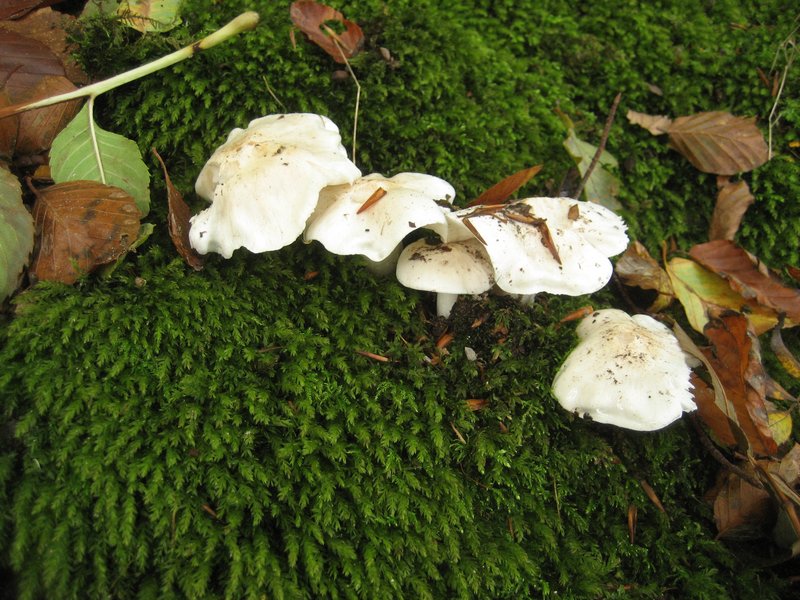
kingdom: Fungi
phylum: Basidiomycota
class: Agaricomycetes
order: Agaricales
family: Tricholomataceae
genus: Tricholoma
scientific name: Tricholoma columbetta
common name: silke-ridderhat
